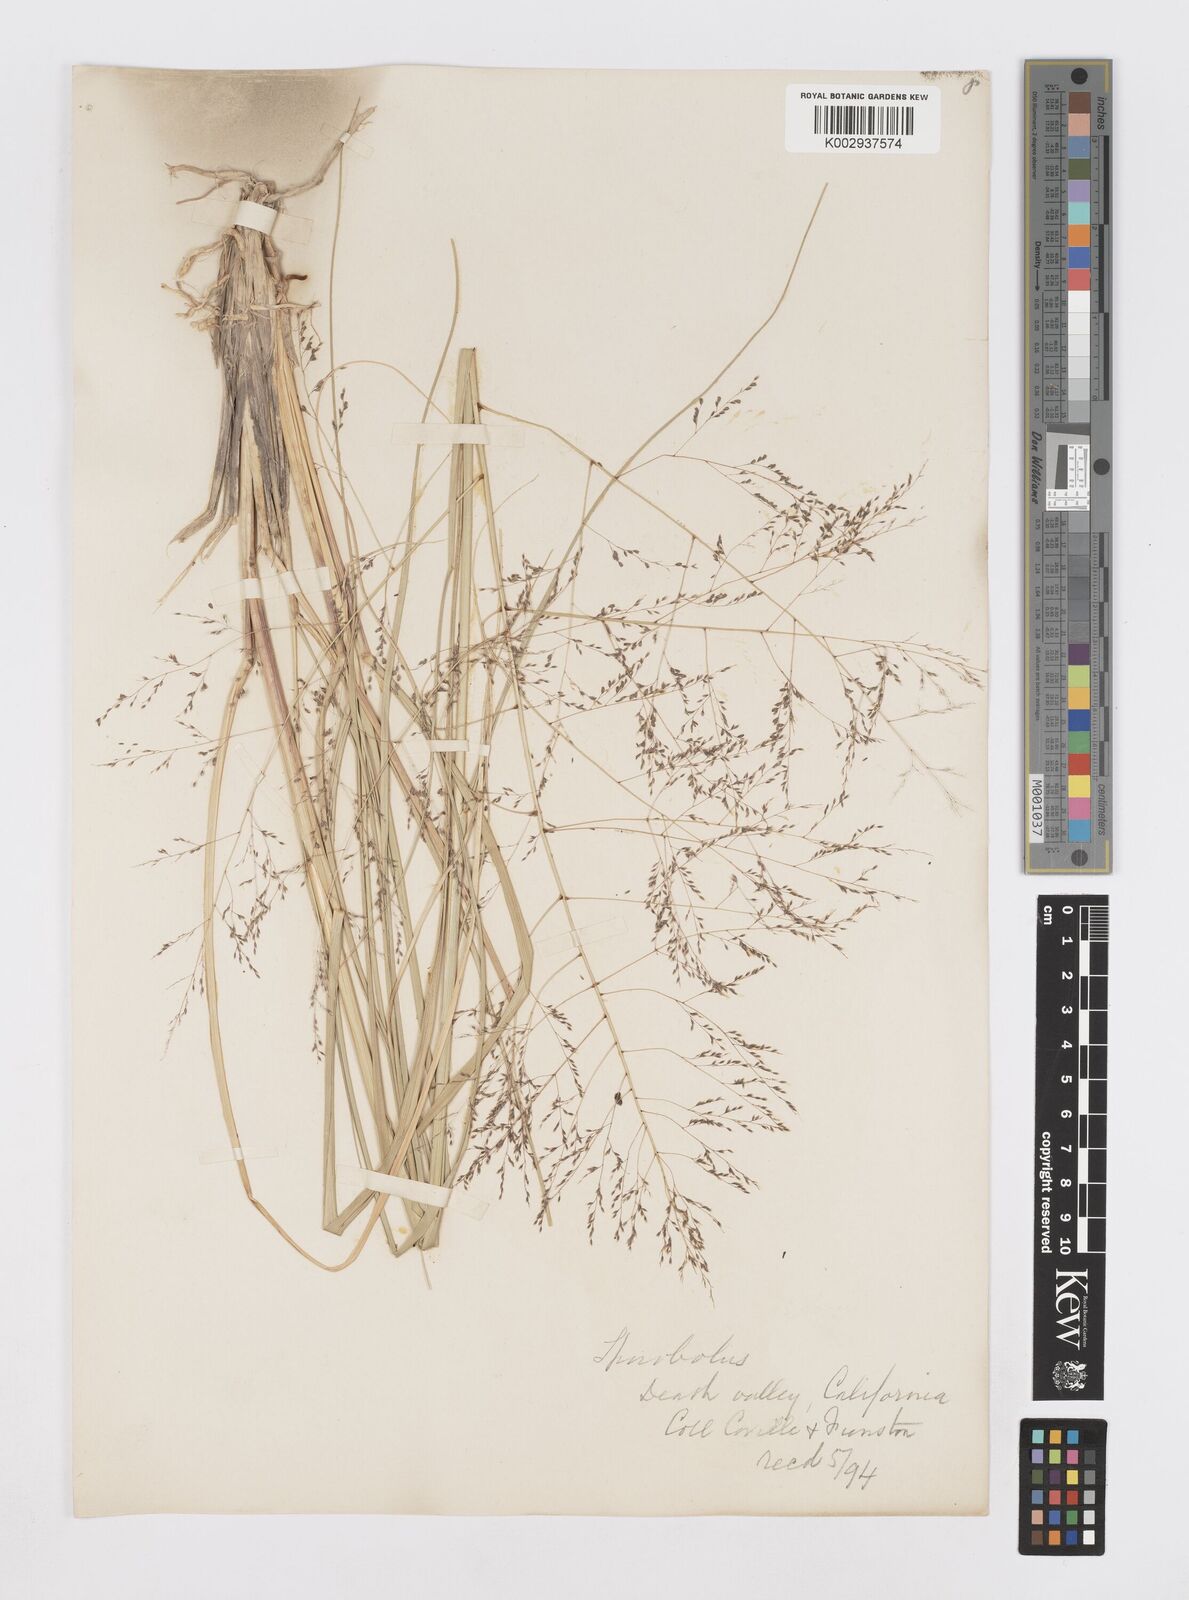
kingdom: Plantae
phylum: Tracheophyta
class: Liliopsida
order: Poales
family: Poaceae
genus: Sporobolus
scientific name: Sporobolus
